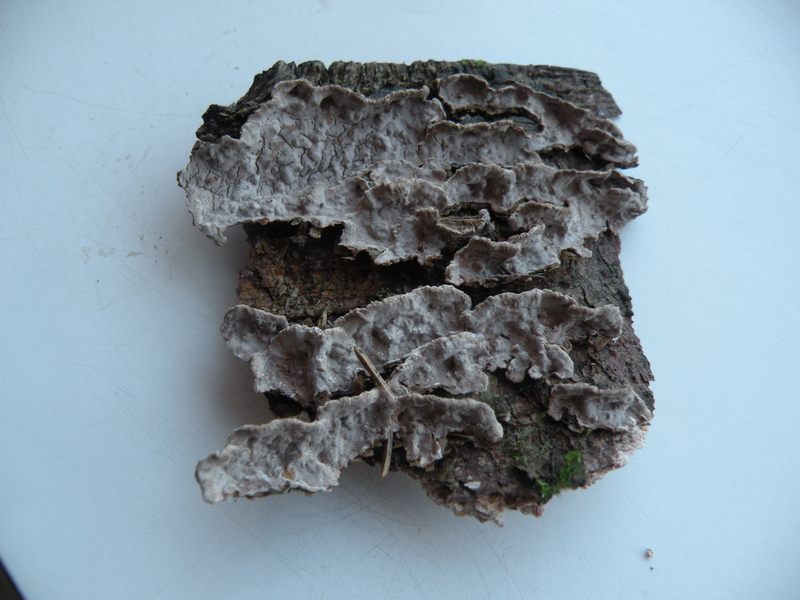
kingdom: Fungi
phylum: Basidiomycota
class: Agaricomycetes
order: Russulales
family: Echinodontiaceae
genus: Amylostereum
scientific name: Amylostereum chailletii
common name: gran-lædersvamp
